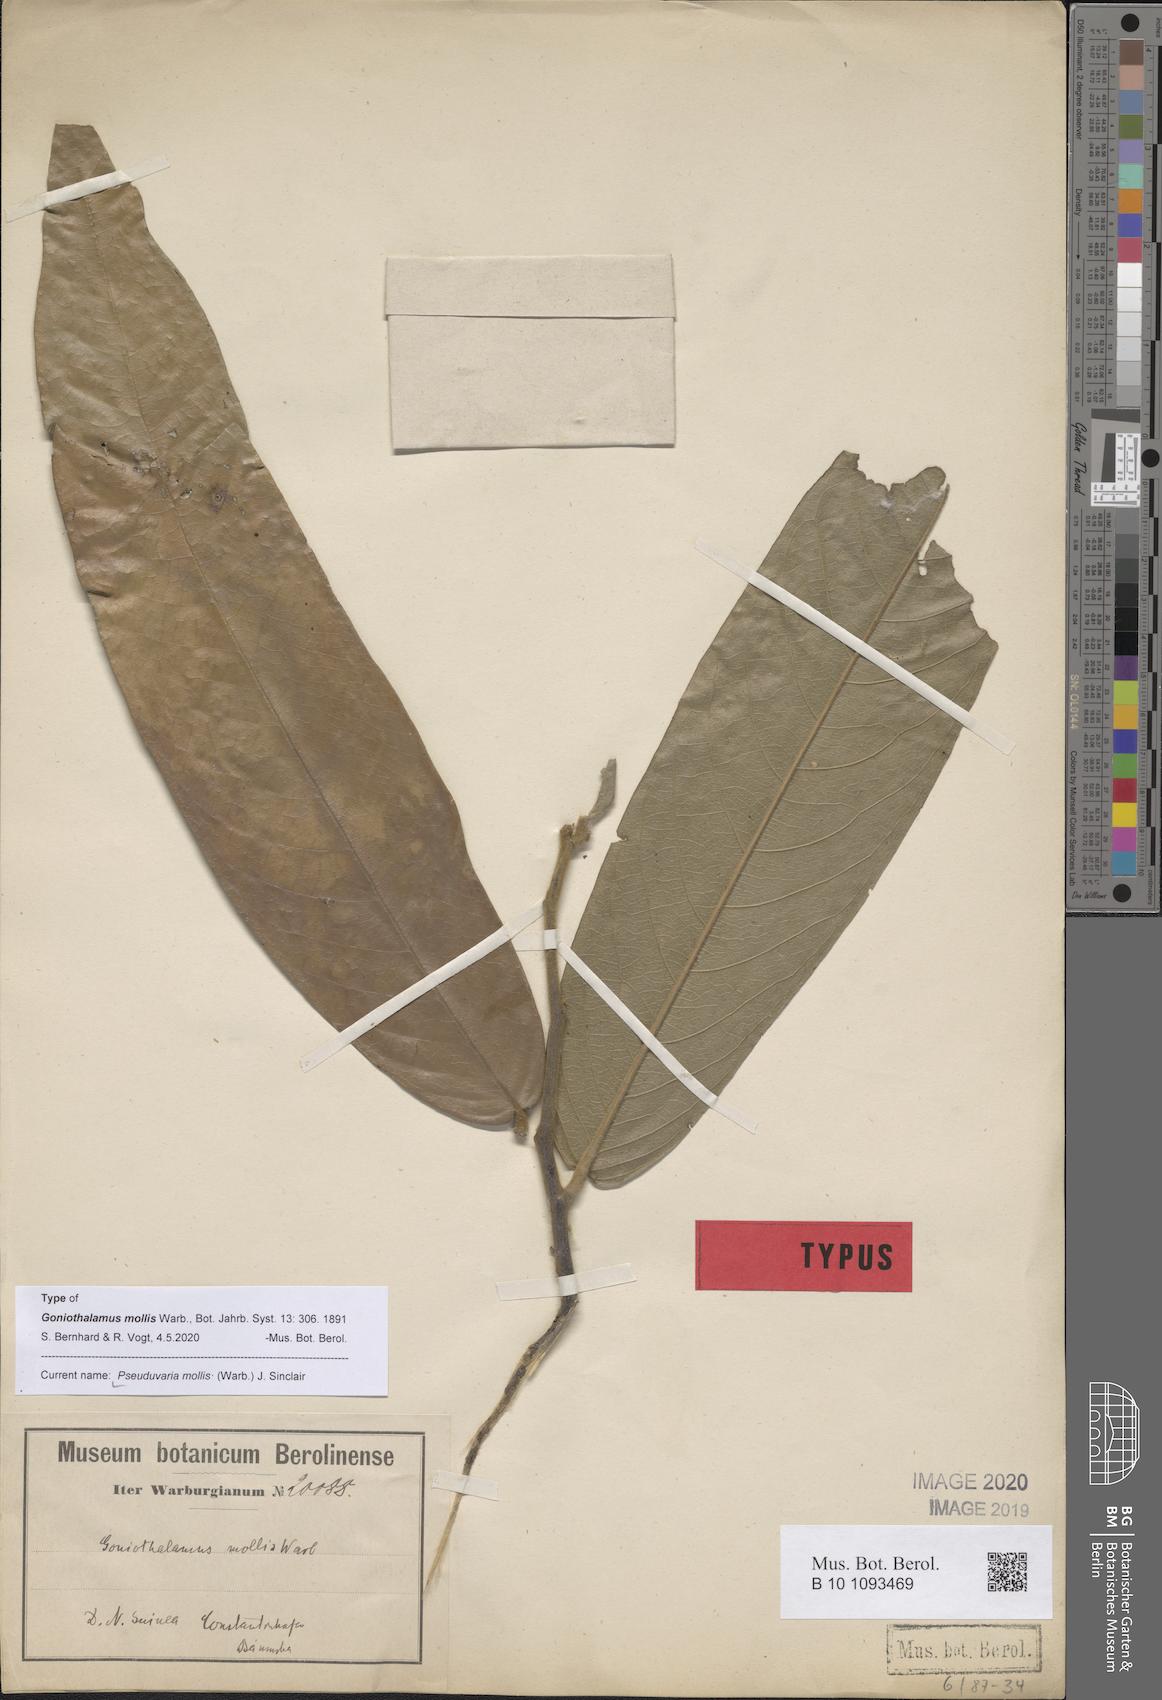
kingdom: Plantae
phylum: Tracheophyta
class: Magnoliopsida
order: Magnoliales
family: Annonaceae
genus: Pseuduvaria
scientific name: Pseuduvaria mollis
